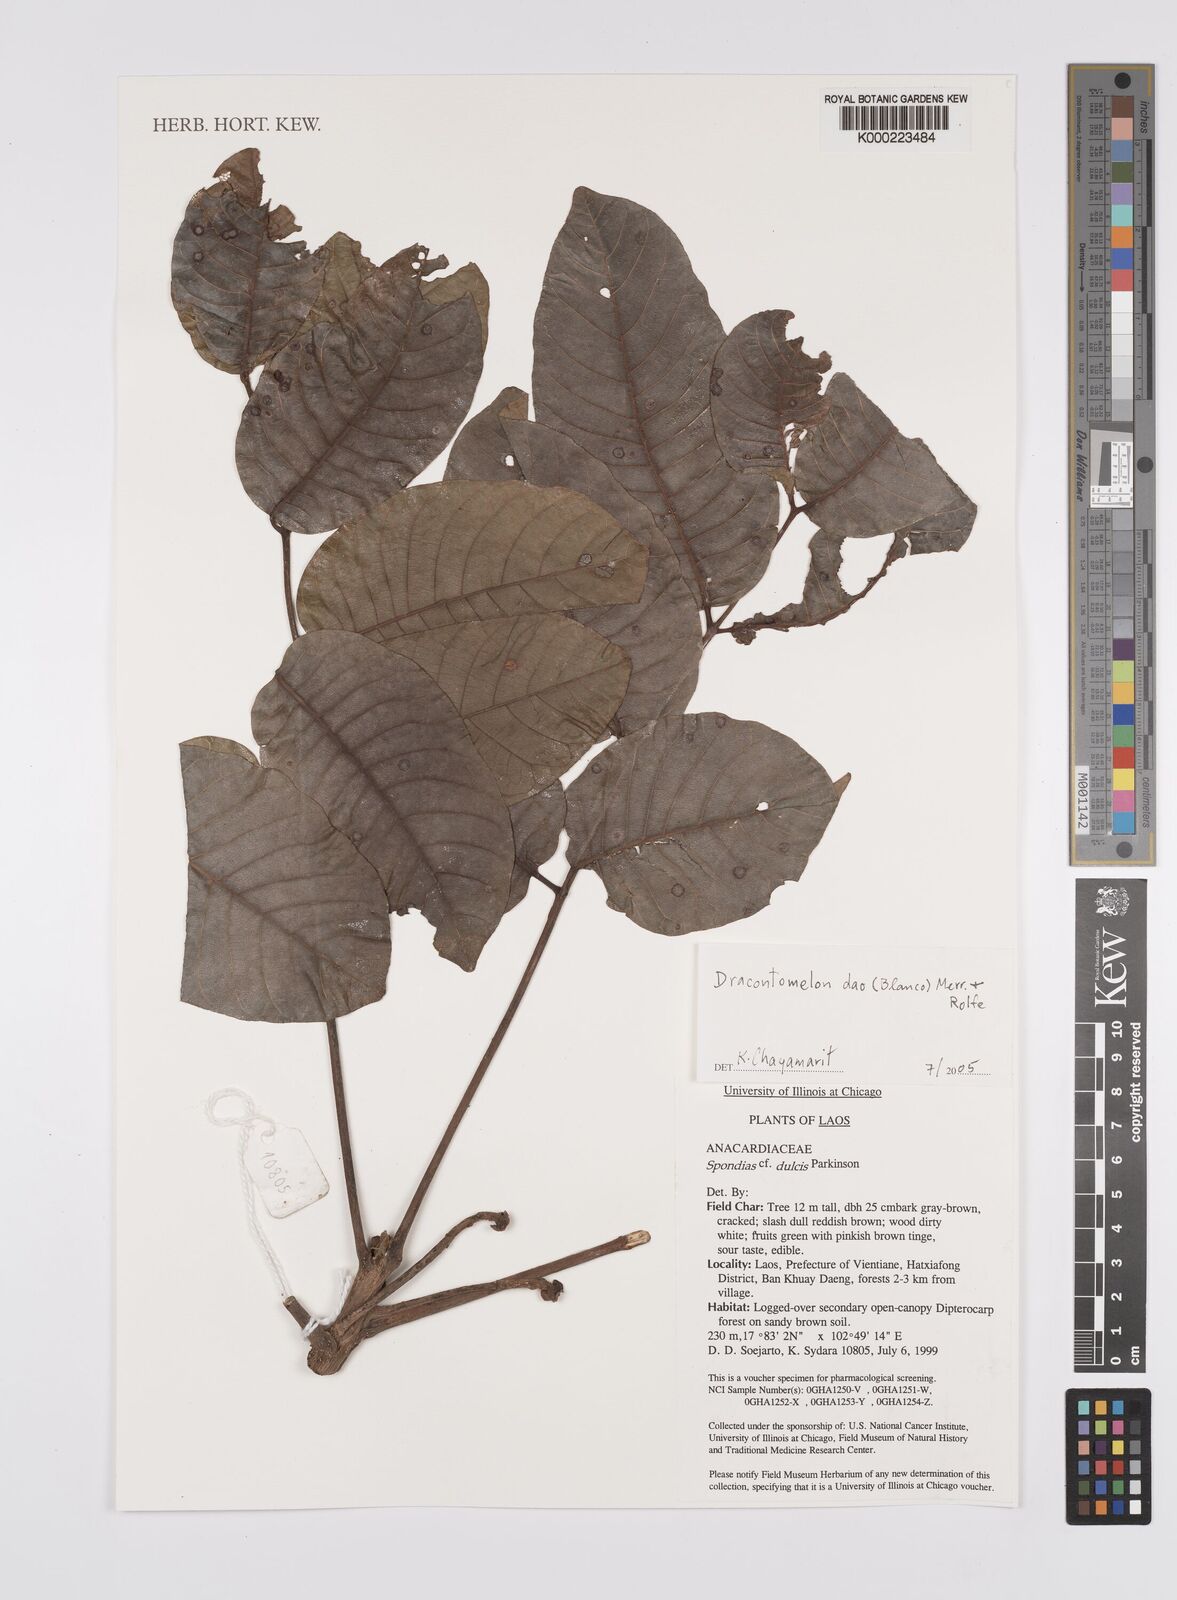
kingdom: Plantae
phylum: Tracheophyta
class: Magnoliopsida
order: Sapindales
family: Anacardiaceae
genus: Dracontomelon
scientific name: Dracontomelon dao
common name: Argus pheasant-tree
